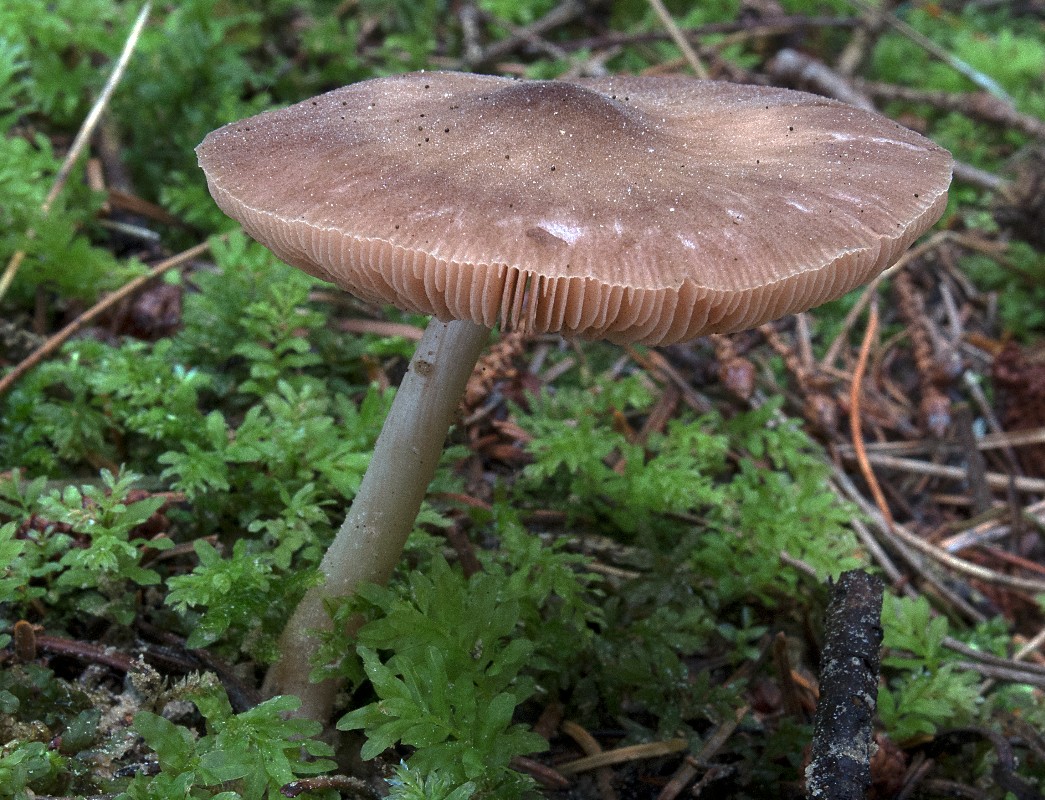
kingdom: Fungi
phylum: Basidiomycota
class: Agaricomycetes
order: Agaricales
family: Pluteaceae
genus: Pluteus
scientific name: Pluteus roseipes
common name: rosafodet skærmhat
